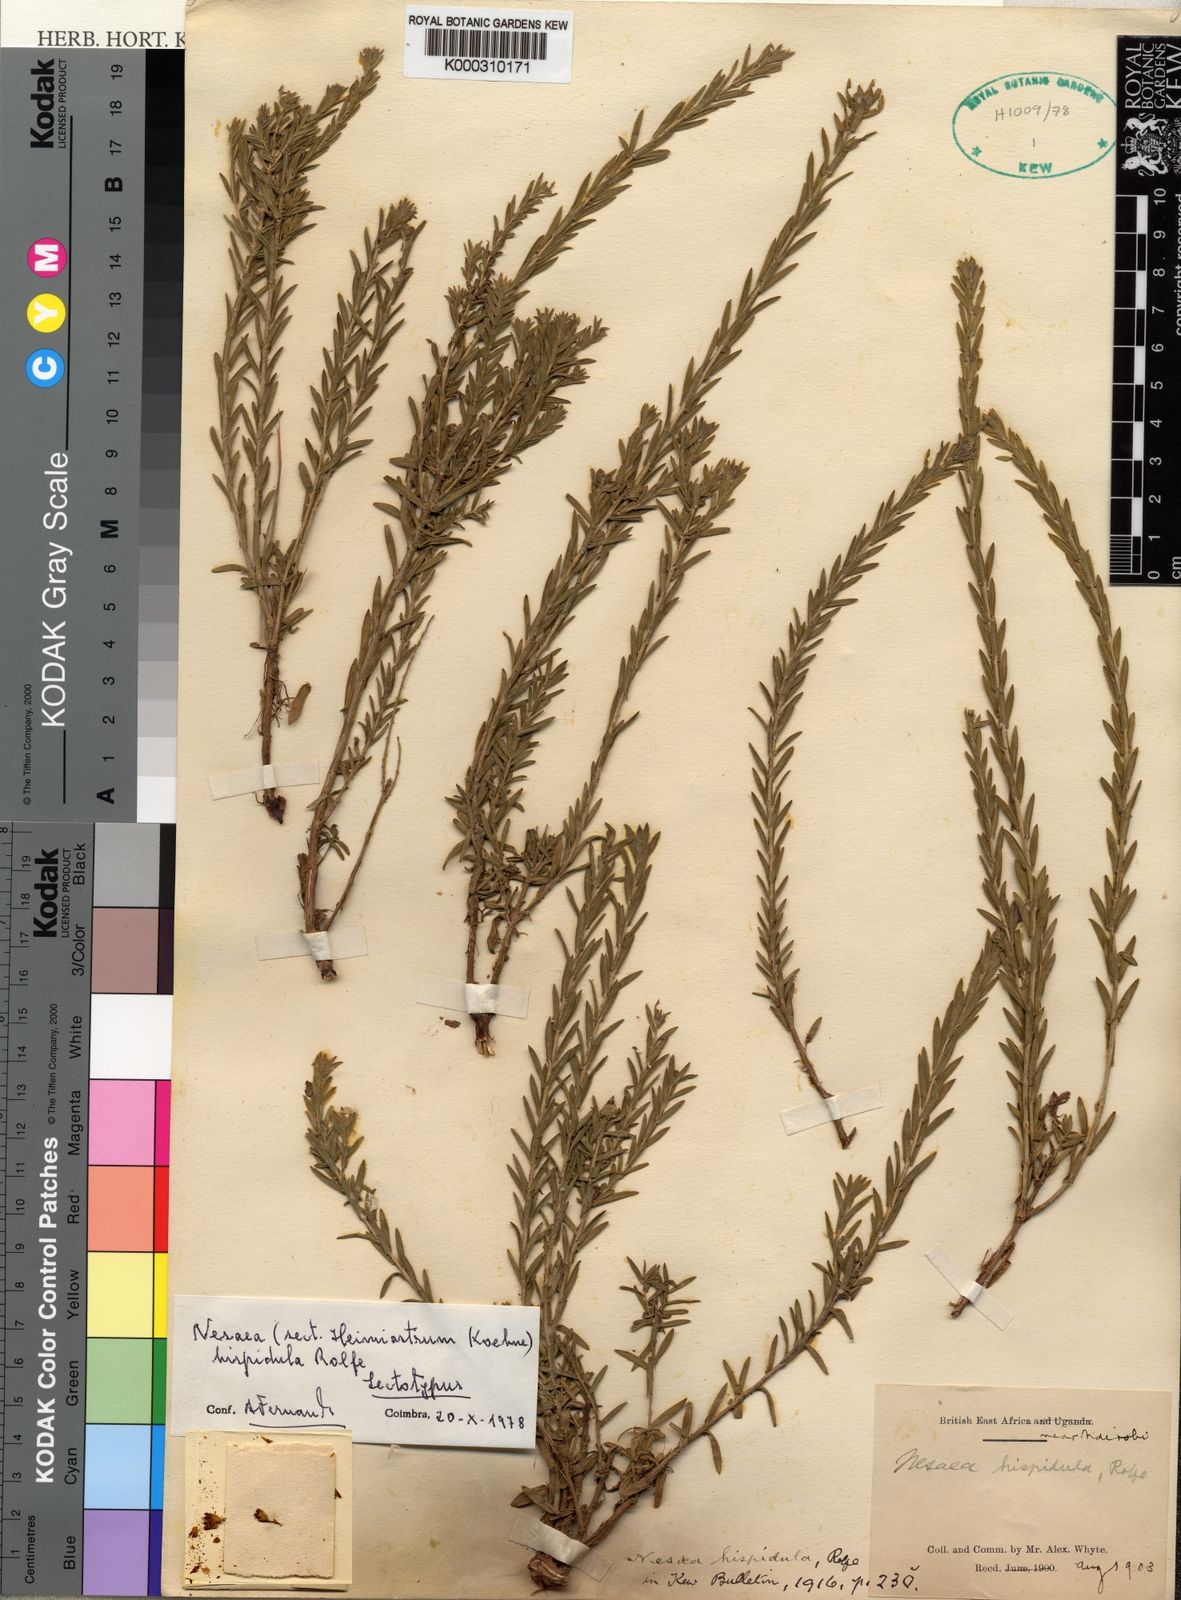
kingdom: Plantae
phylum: Tracheophyta
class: Magnoliopsida
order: Myrtales
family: Lythraceae
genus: Ammannia
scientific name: Ammannia kilimandscharica
